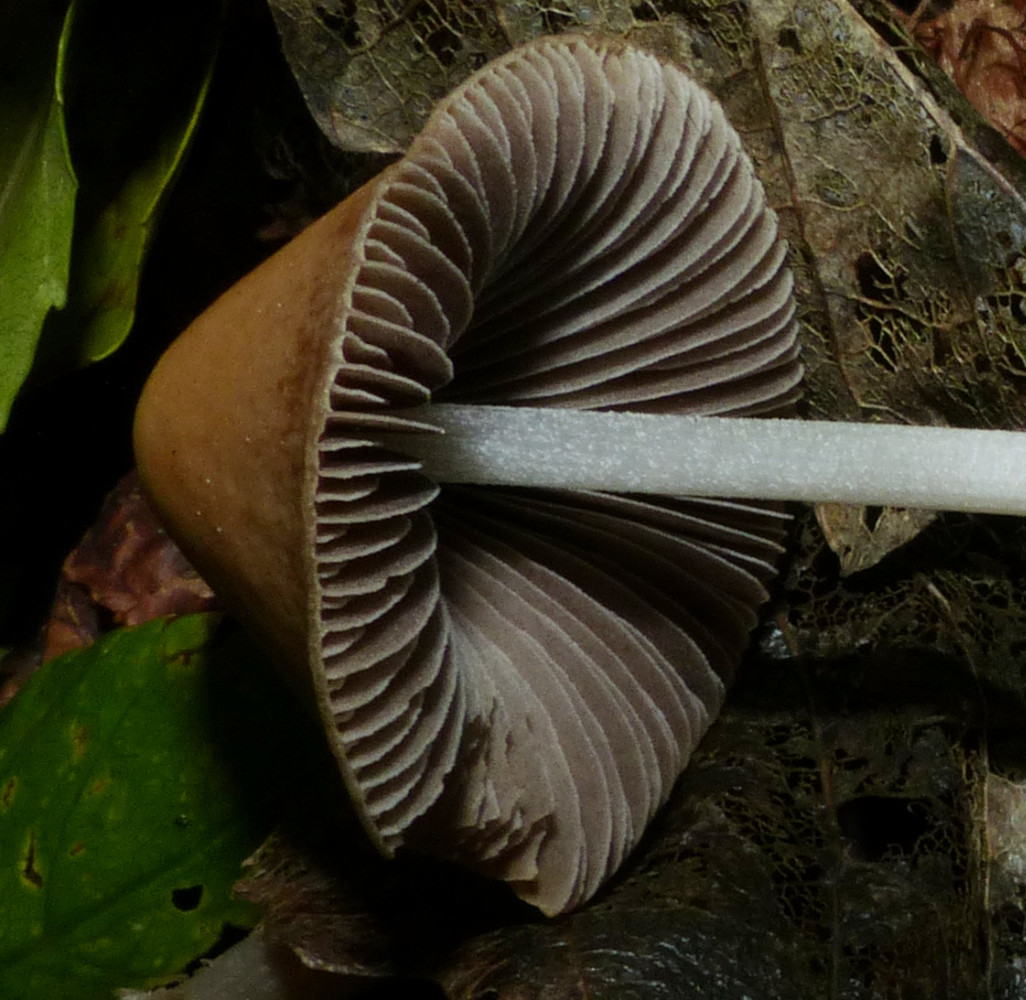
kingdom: Fungi
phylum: Basidiomycota
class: Agaricomycetes
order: Agaricales
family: Psathyrellaceae
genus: Parasola
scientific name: Parasola conopilea
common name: kegle-hjulhat
